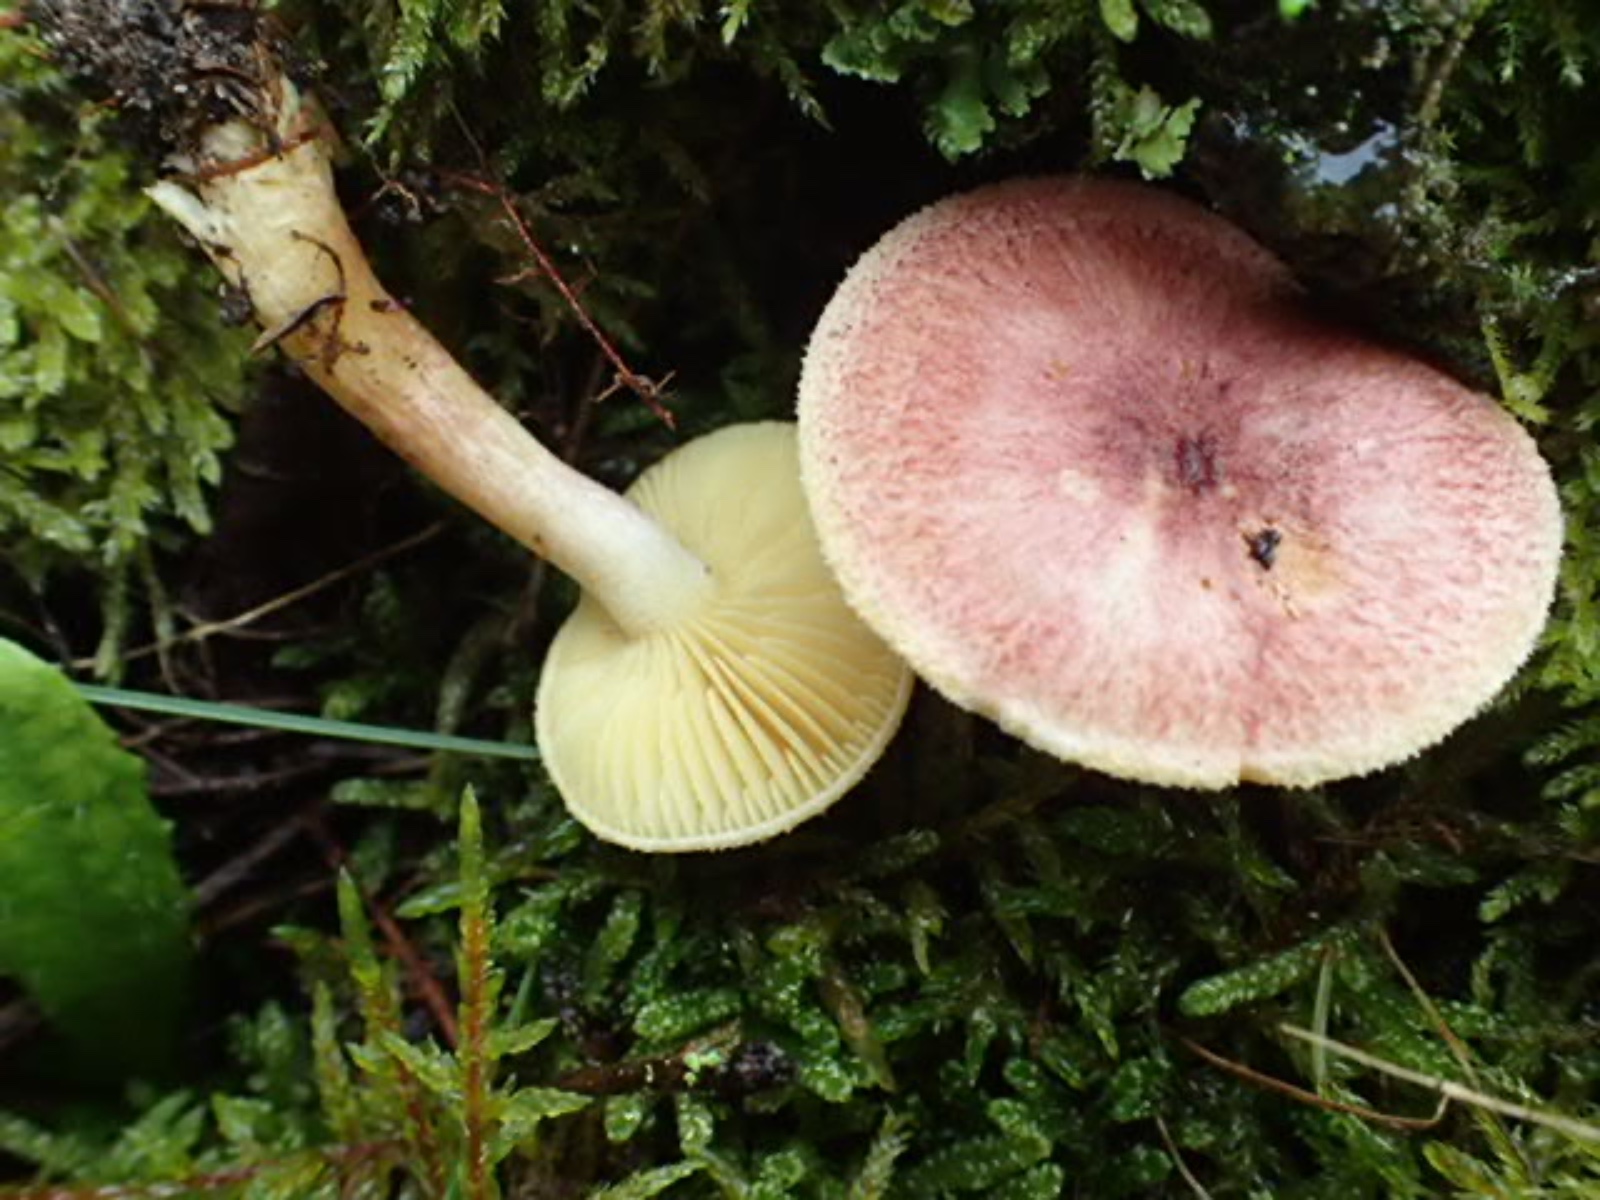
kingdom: Fungi
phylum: Basidiomycota
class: Agaricomycetes
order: Agaricales
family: Tricholomataceae
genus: Tricholomopsis
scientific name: Tricholomopsis rutilans
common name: purpur-væbnerhat
